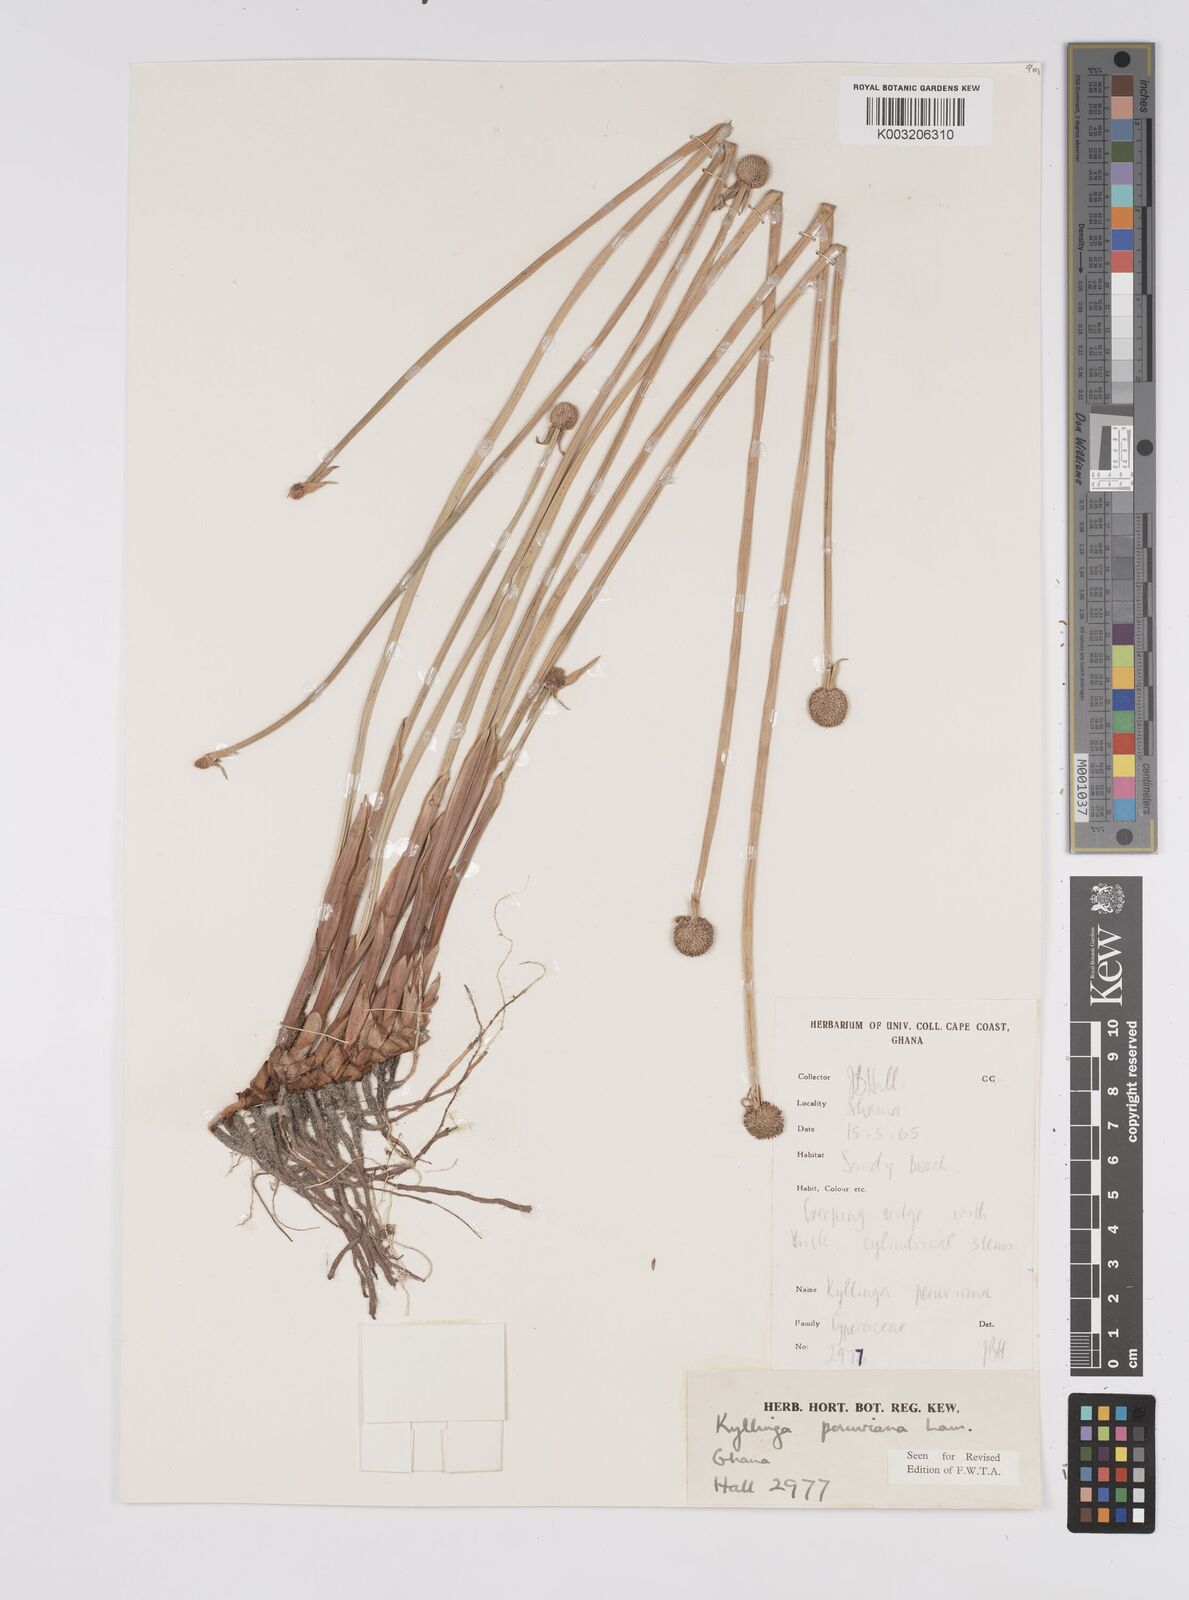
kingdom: Plantae
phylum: Tracheophyta
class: Liliopsida
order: Poales
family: Cyperaceae
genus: Cyperus
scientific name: Cyperus obtusatus
